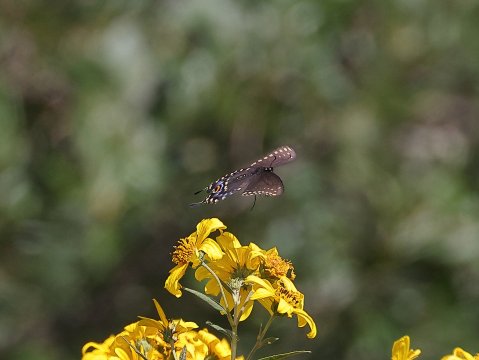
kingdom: Animalia
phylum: Arthropoda
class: Insecta
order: Lepidoptera
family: Papilionidae
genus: Papilio
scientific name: Papilio polyxenes
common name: Black Swallowtail
